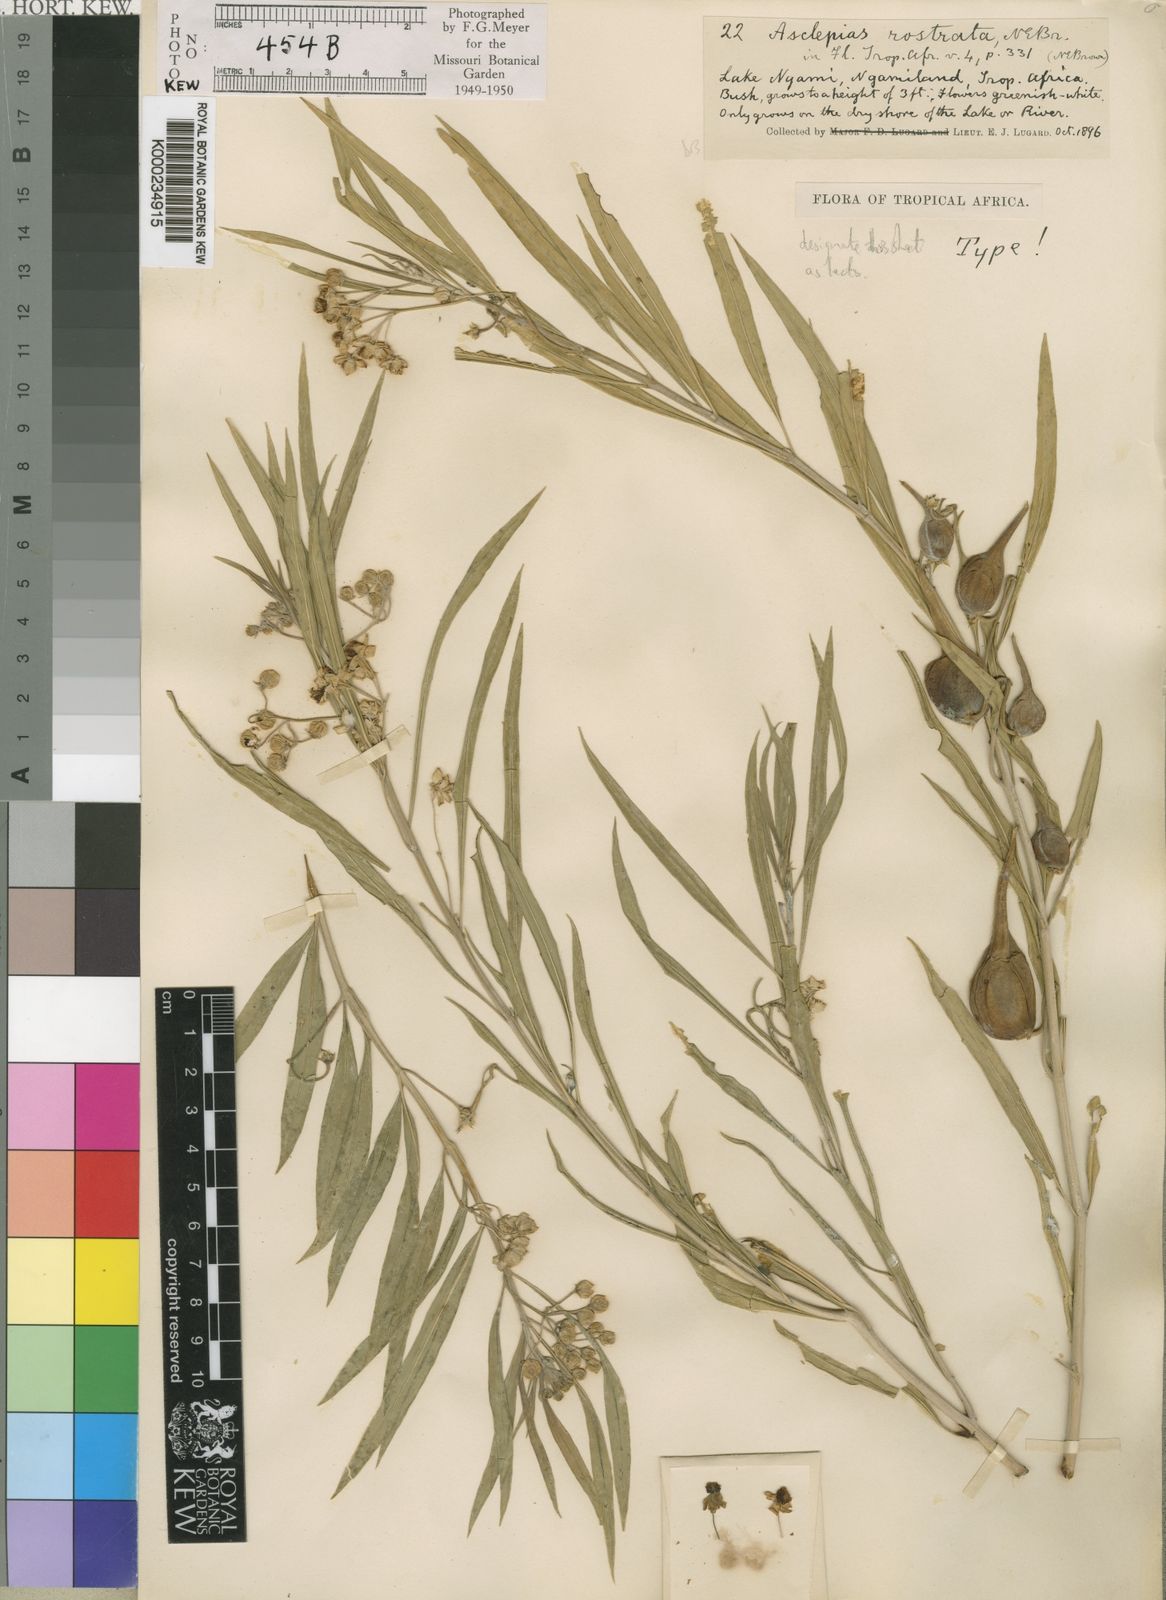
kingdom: Plantae
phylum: Tracheophyta
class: Magnoliopsida
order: Gentianales
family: Apocynaceae
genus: Gomphocarpus
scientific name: Gomphocarpus fruticosus
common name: Milkweed
